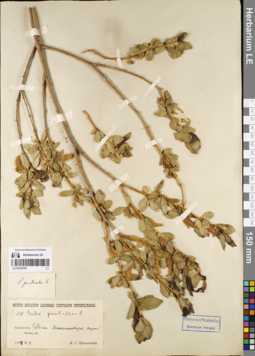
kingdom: Plantae
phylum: Tracheophyta
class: Magnoliopsida
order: Malpighiales
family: Salicaceae
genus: Salix
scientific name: Salix pseudopentandra
